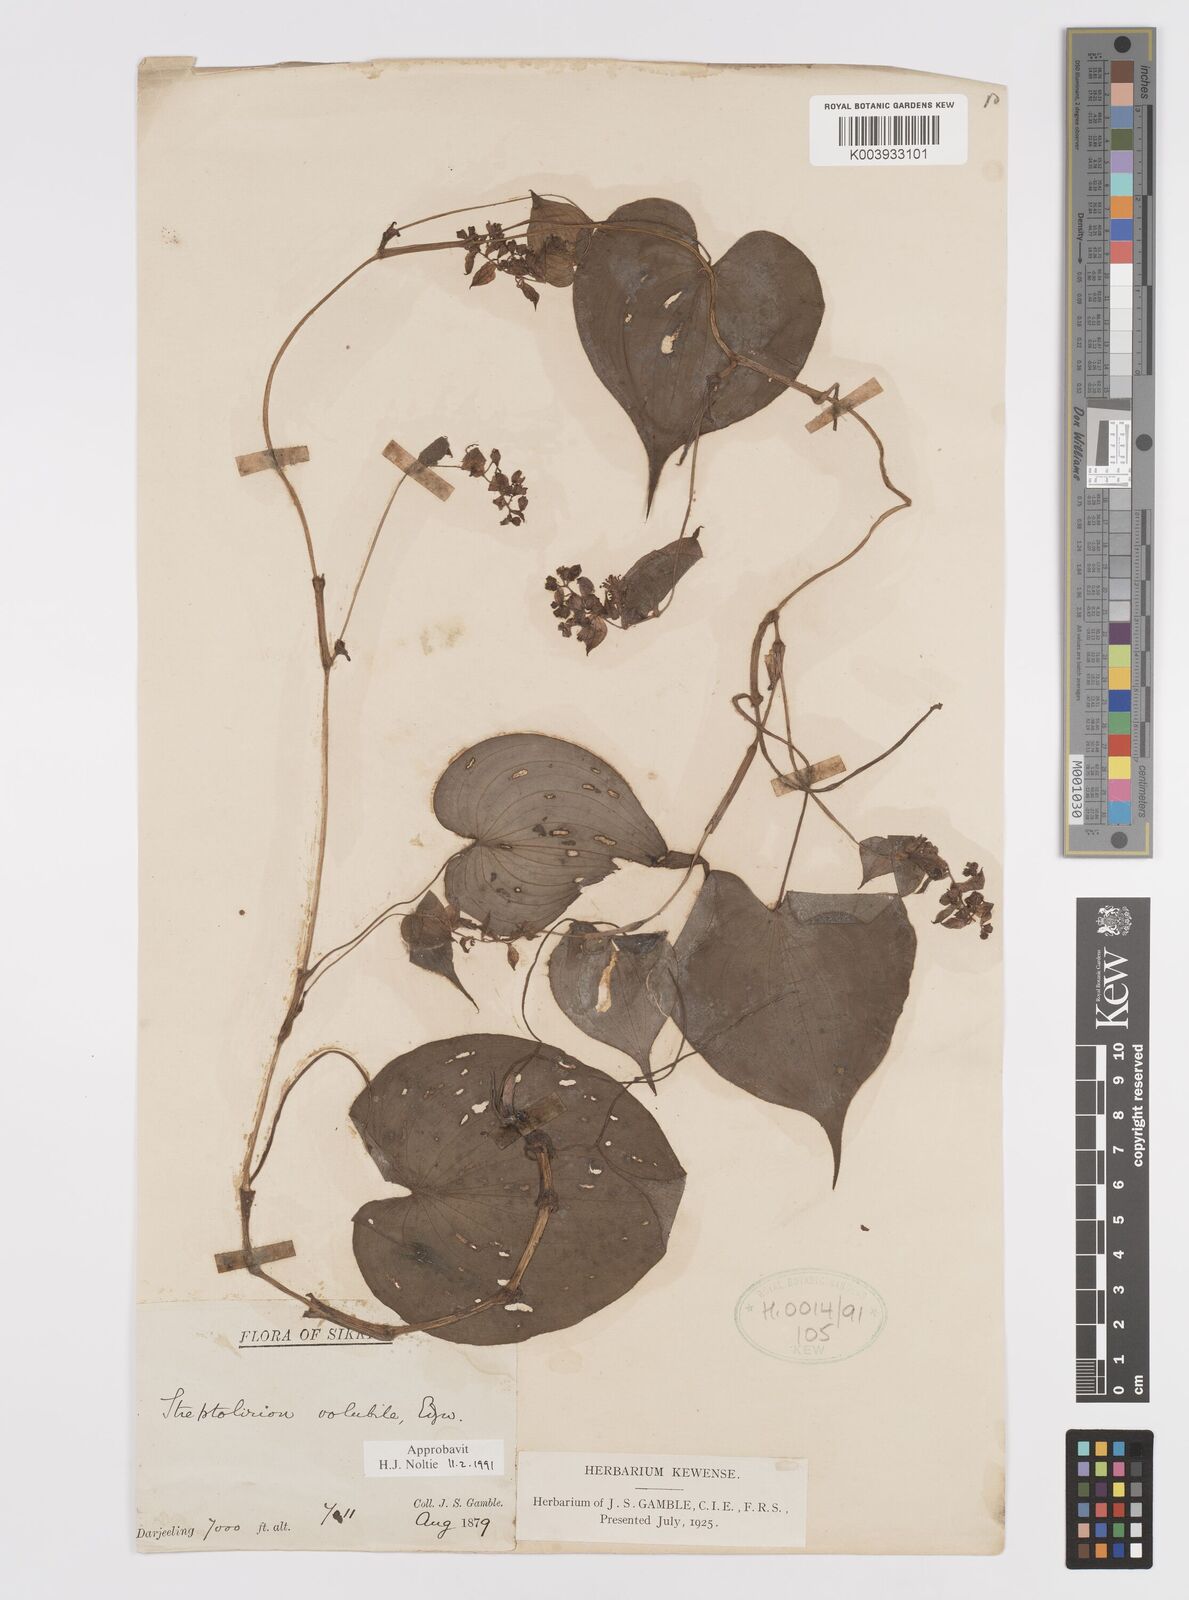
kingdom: Plantae
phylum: Tracheophyta
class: Liliopsida
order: Commelinales
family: Commelinaceae
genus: Streptolirion
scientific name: Streptolirion volubile
